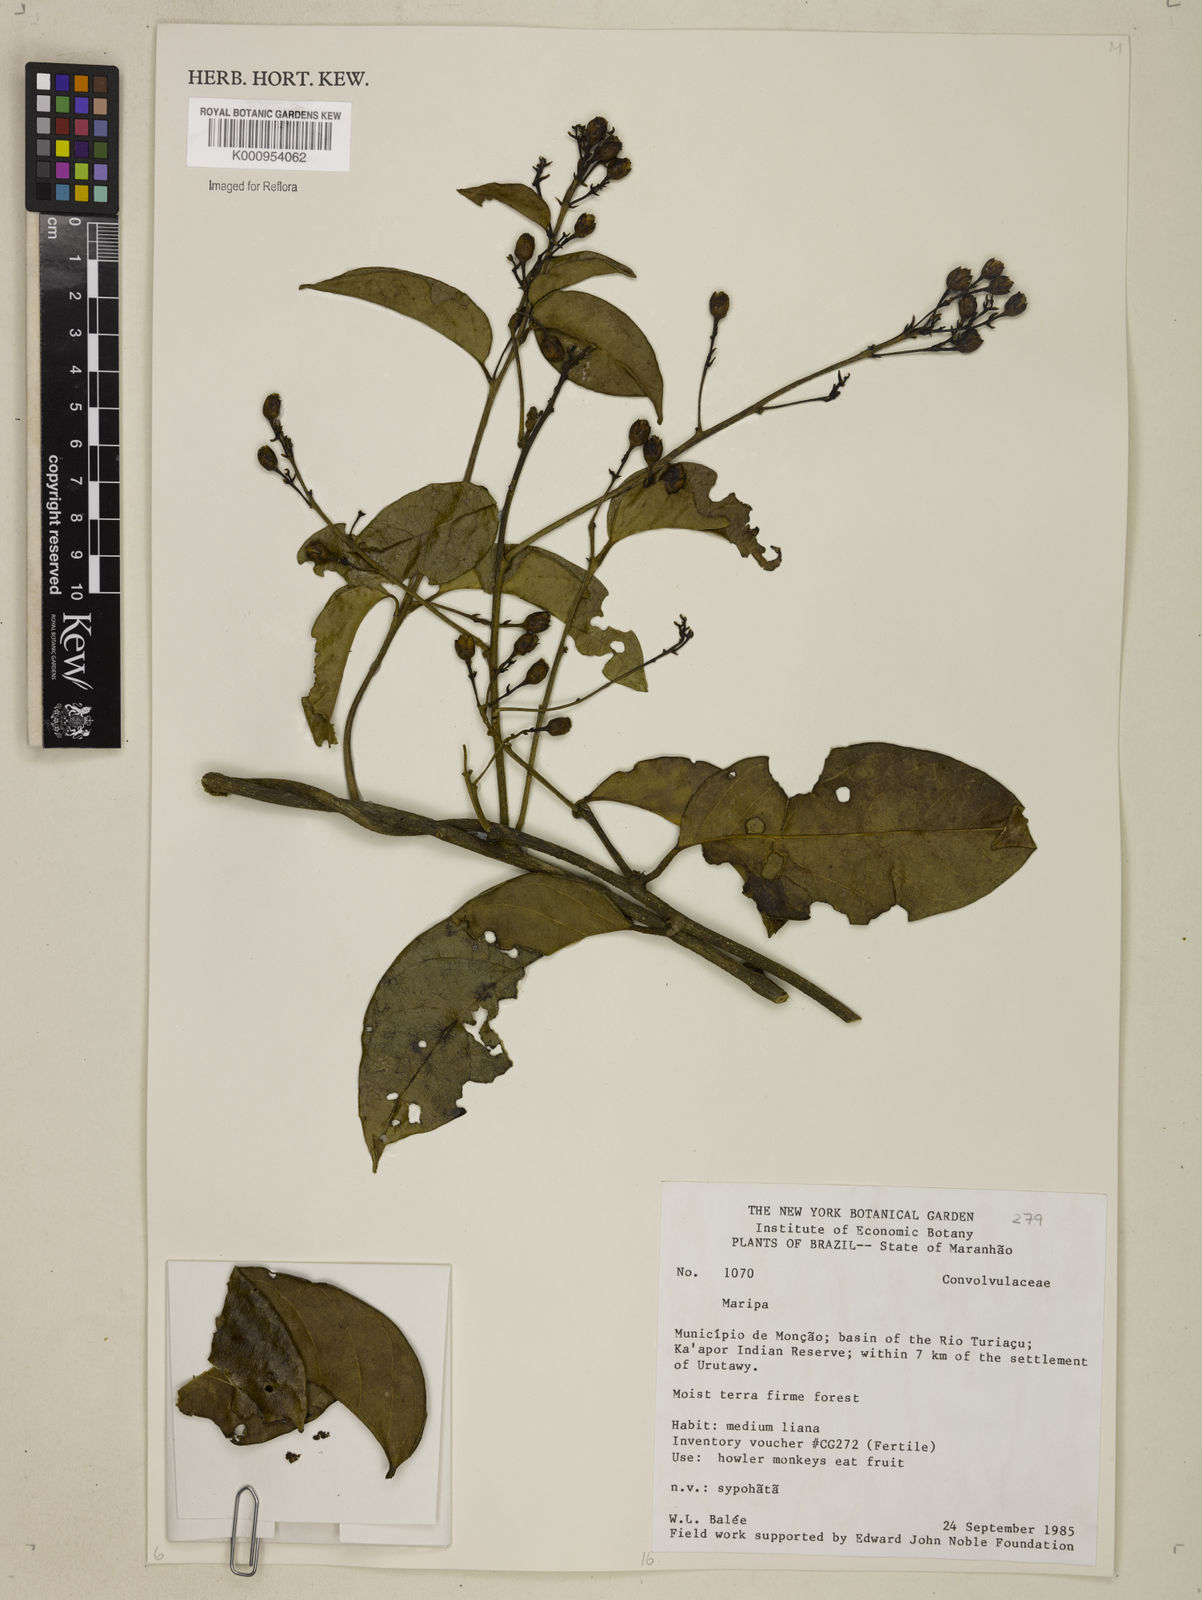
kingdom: Plantae
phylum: Tracheophyta
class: Magnoliopsida
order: Solanales
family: Convolvulaceae
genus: Maripa
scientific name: Maripa
